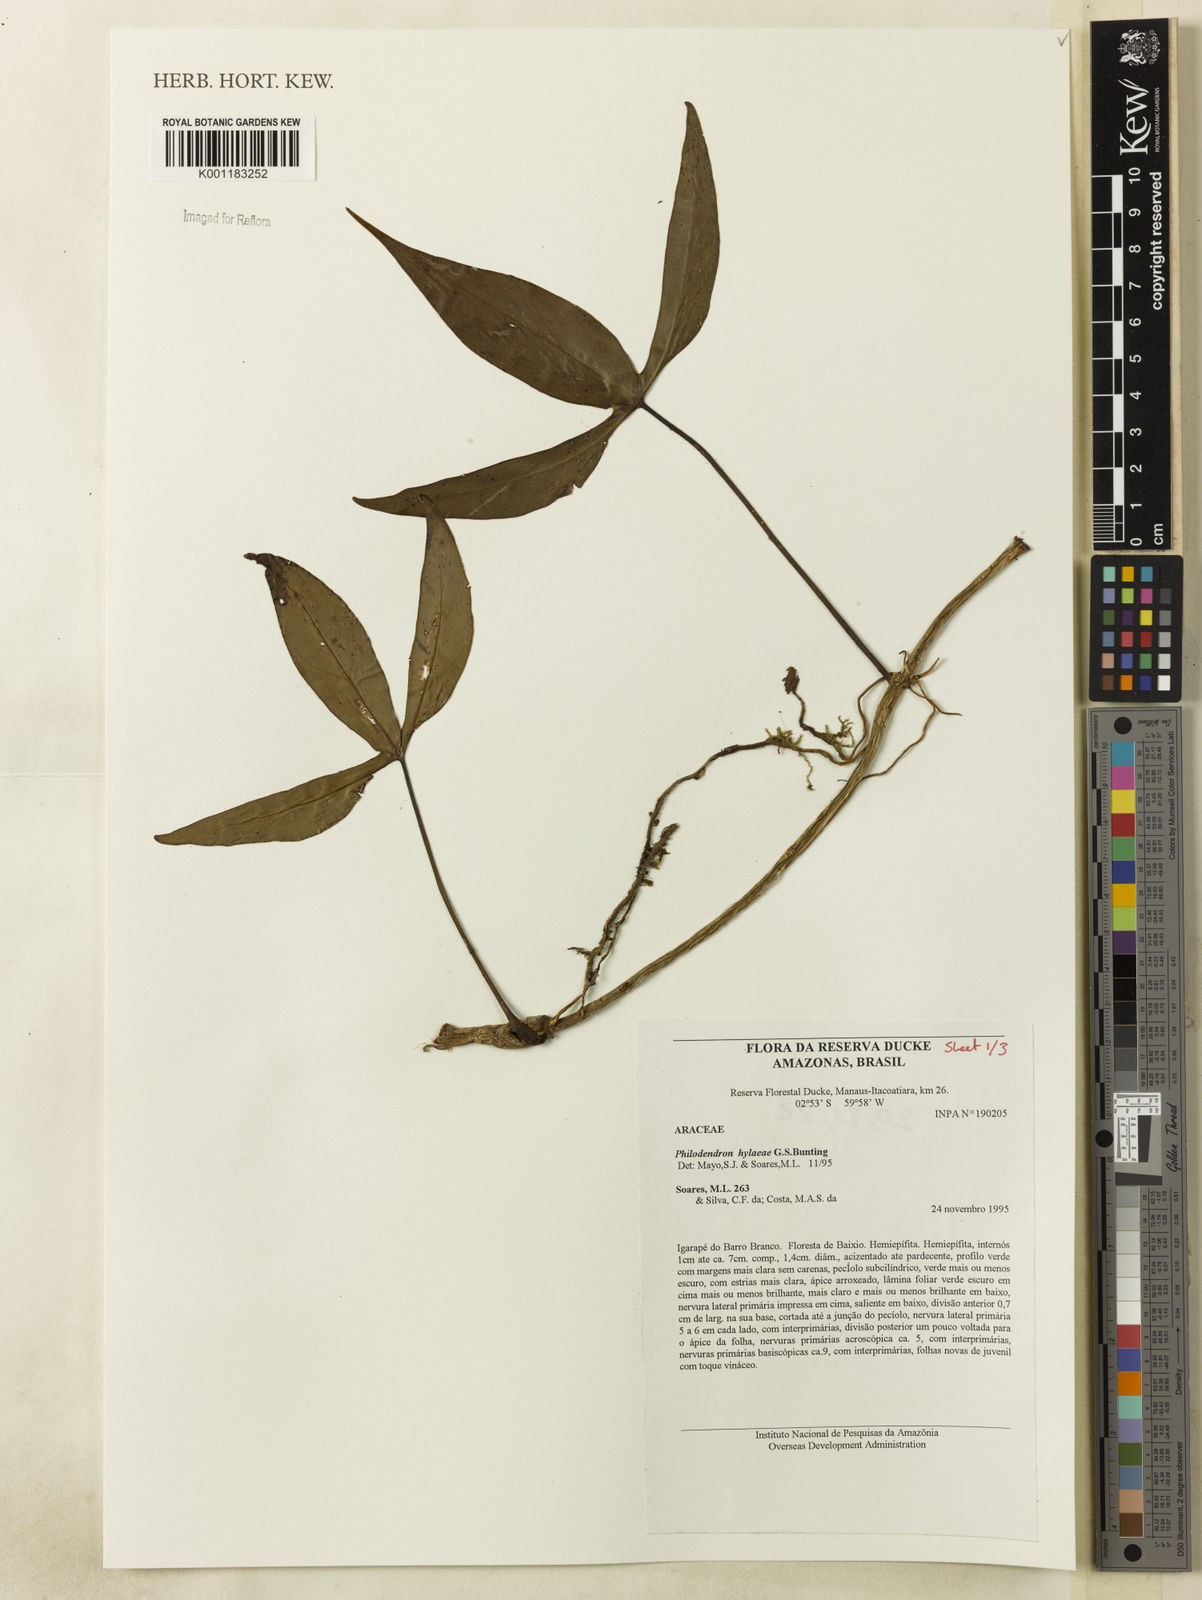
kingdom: Plantae
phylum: Tracheophyta
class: Liliopsida
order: Alismatales
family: Araceae
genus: Philodendron
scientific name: Philodendron hylaeae
